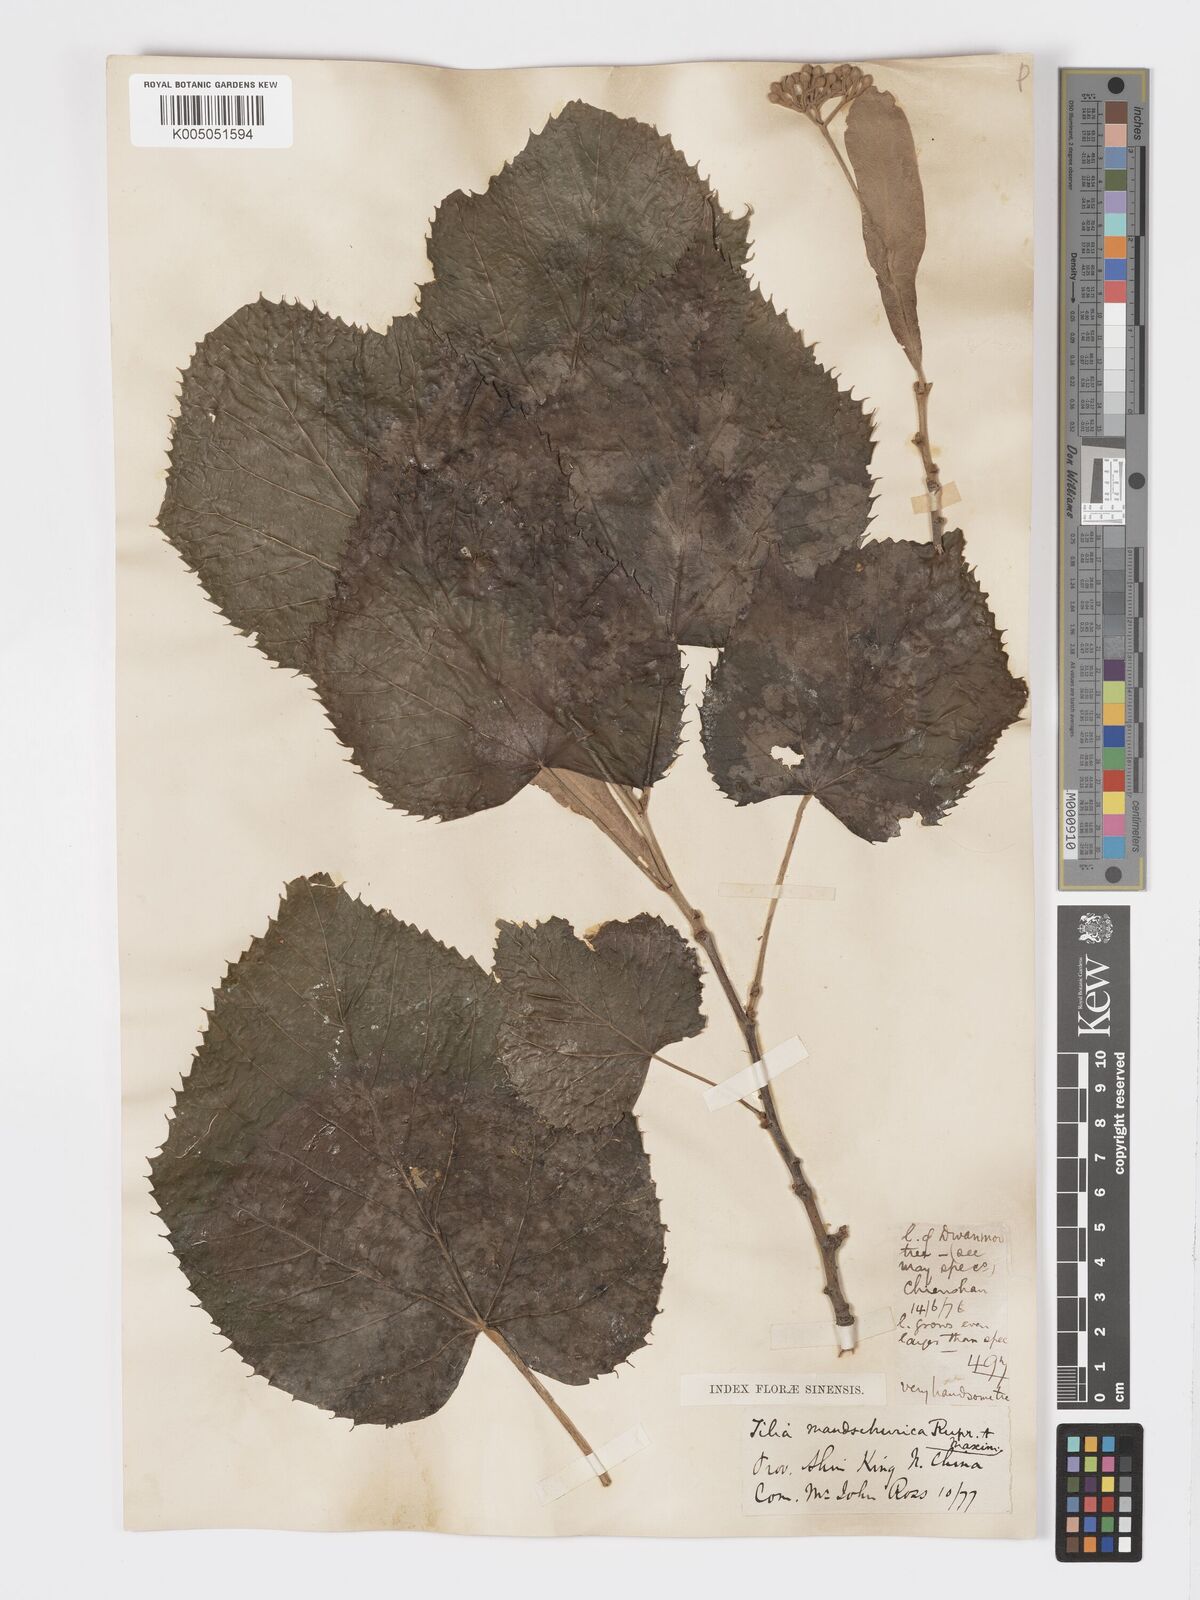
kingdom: Plantae
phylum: Tracheophyta
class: Magnoliopsida
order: Malvales
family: Malvaceae
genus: Tilia
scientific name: Tilia mandshurica
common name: Manchurian linden
